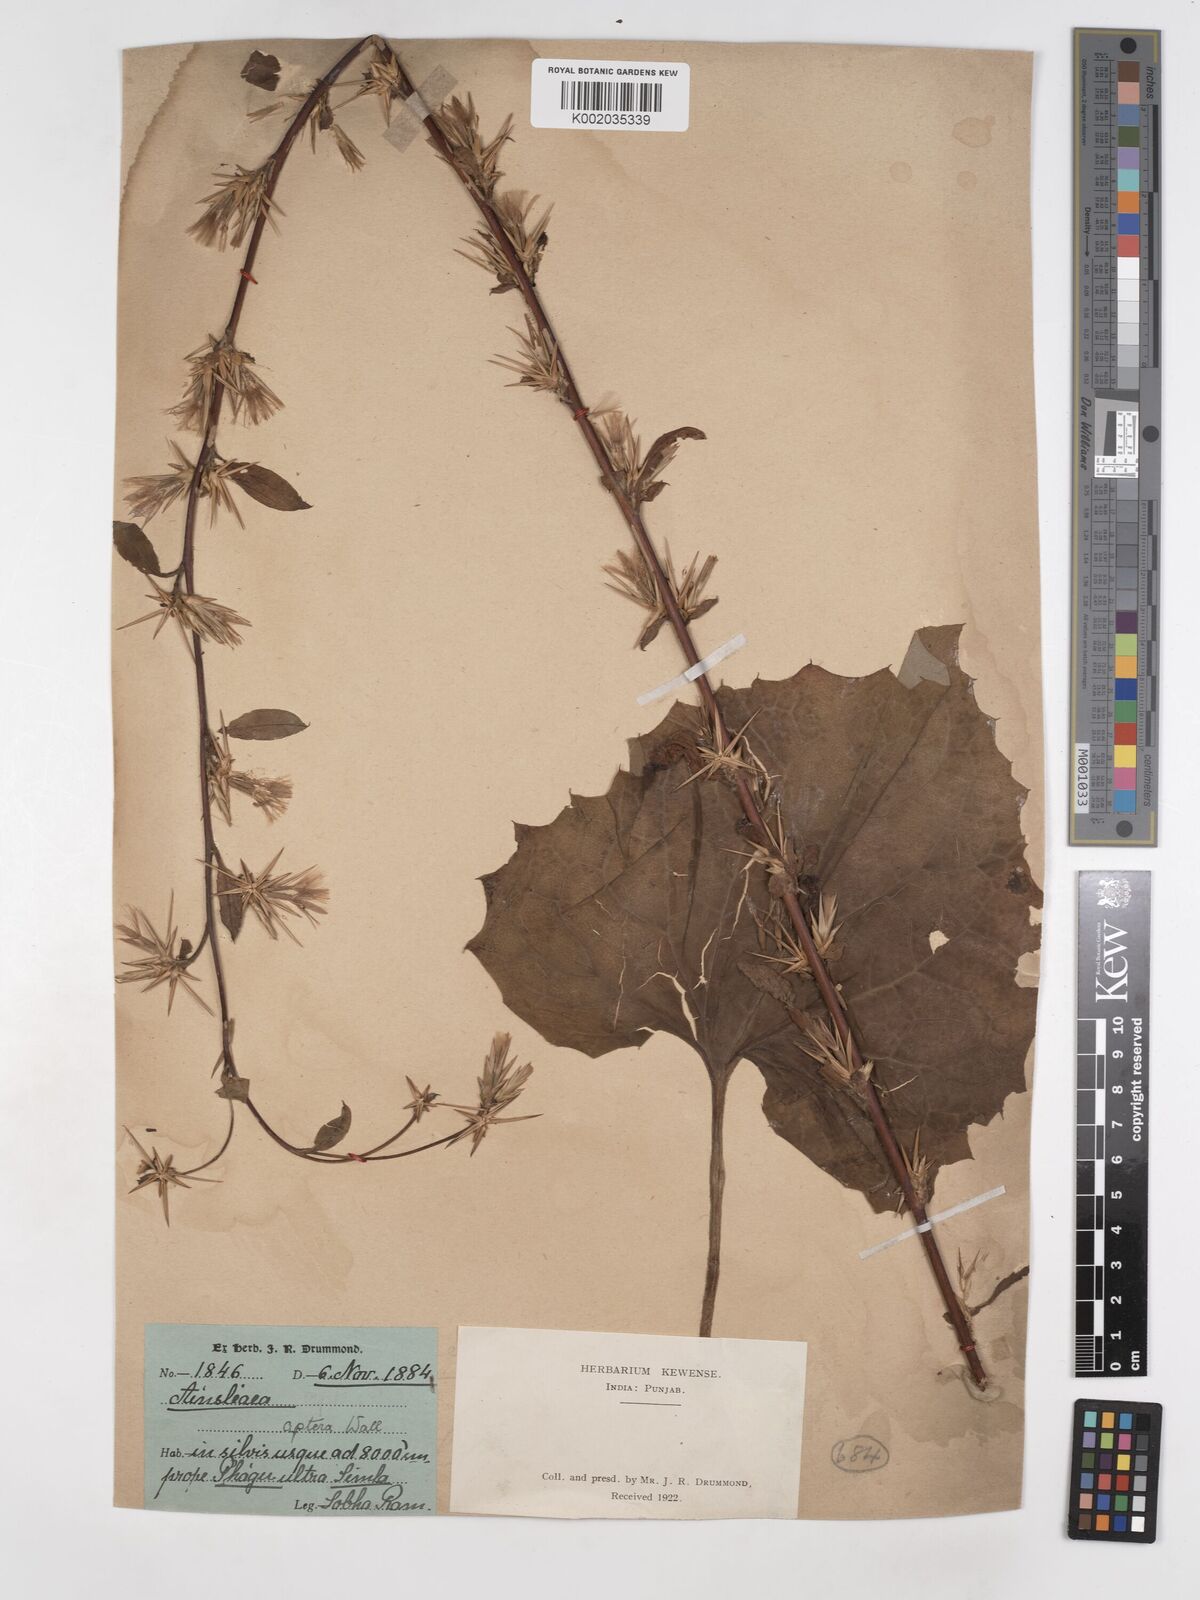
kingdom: Plantae
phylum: Tracheophyta
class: Magnoliopsida
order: Asterales
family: Asteraceae
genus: Ainsliaea
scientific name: Ainsliaea aptera
